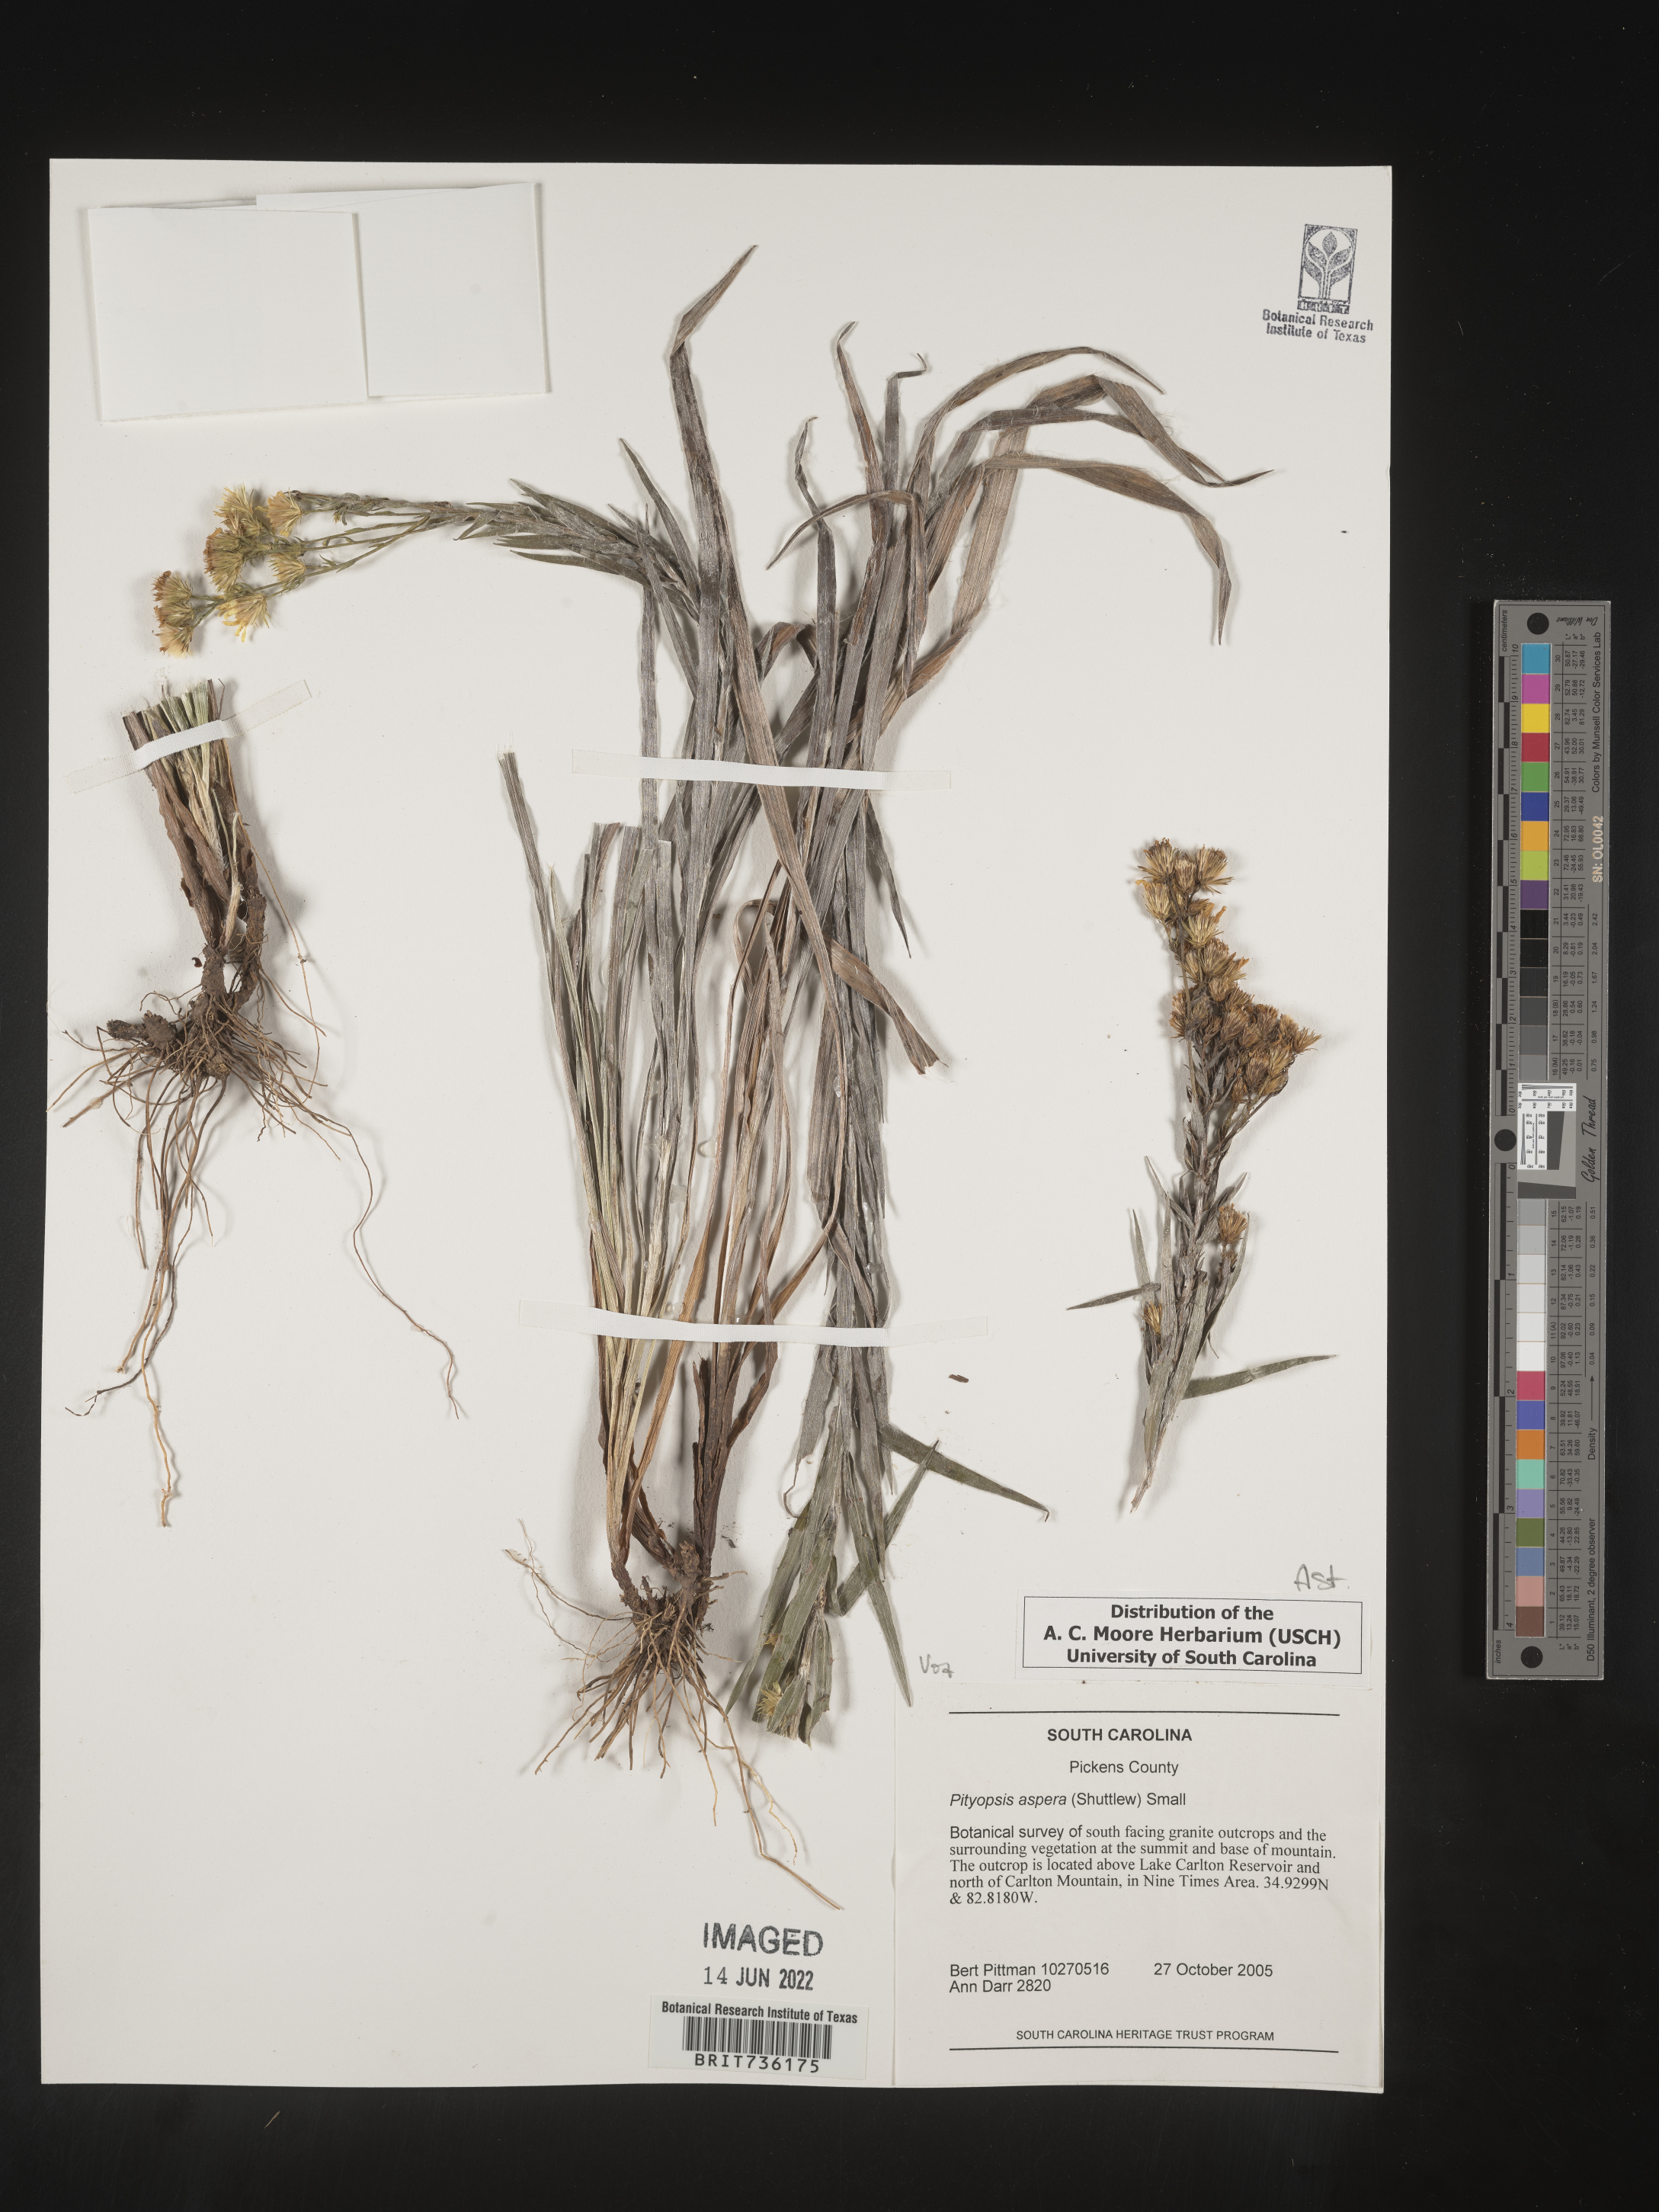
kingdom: Plantae
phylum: Tracheophyta
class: Magnoliopsida
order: Asterales
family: Asteraceae
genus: Pityopsis
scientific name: Pityopsis aspera
